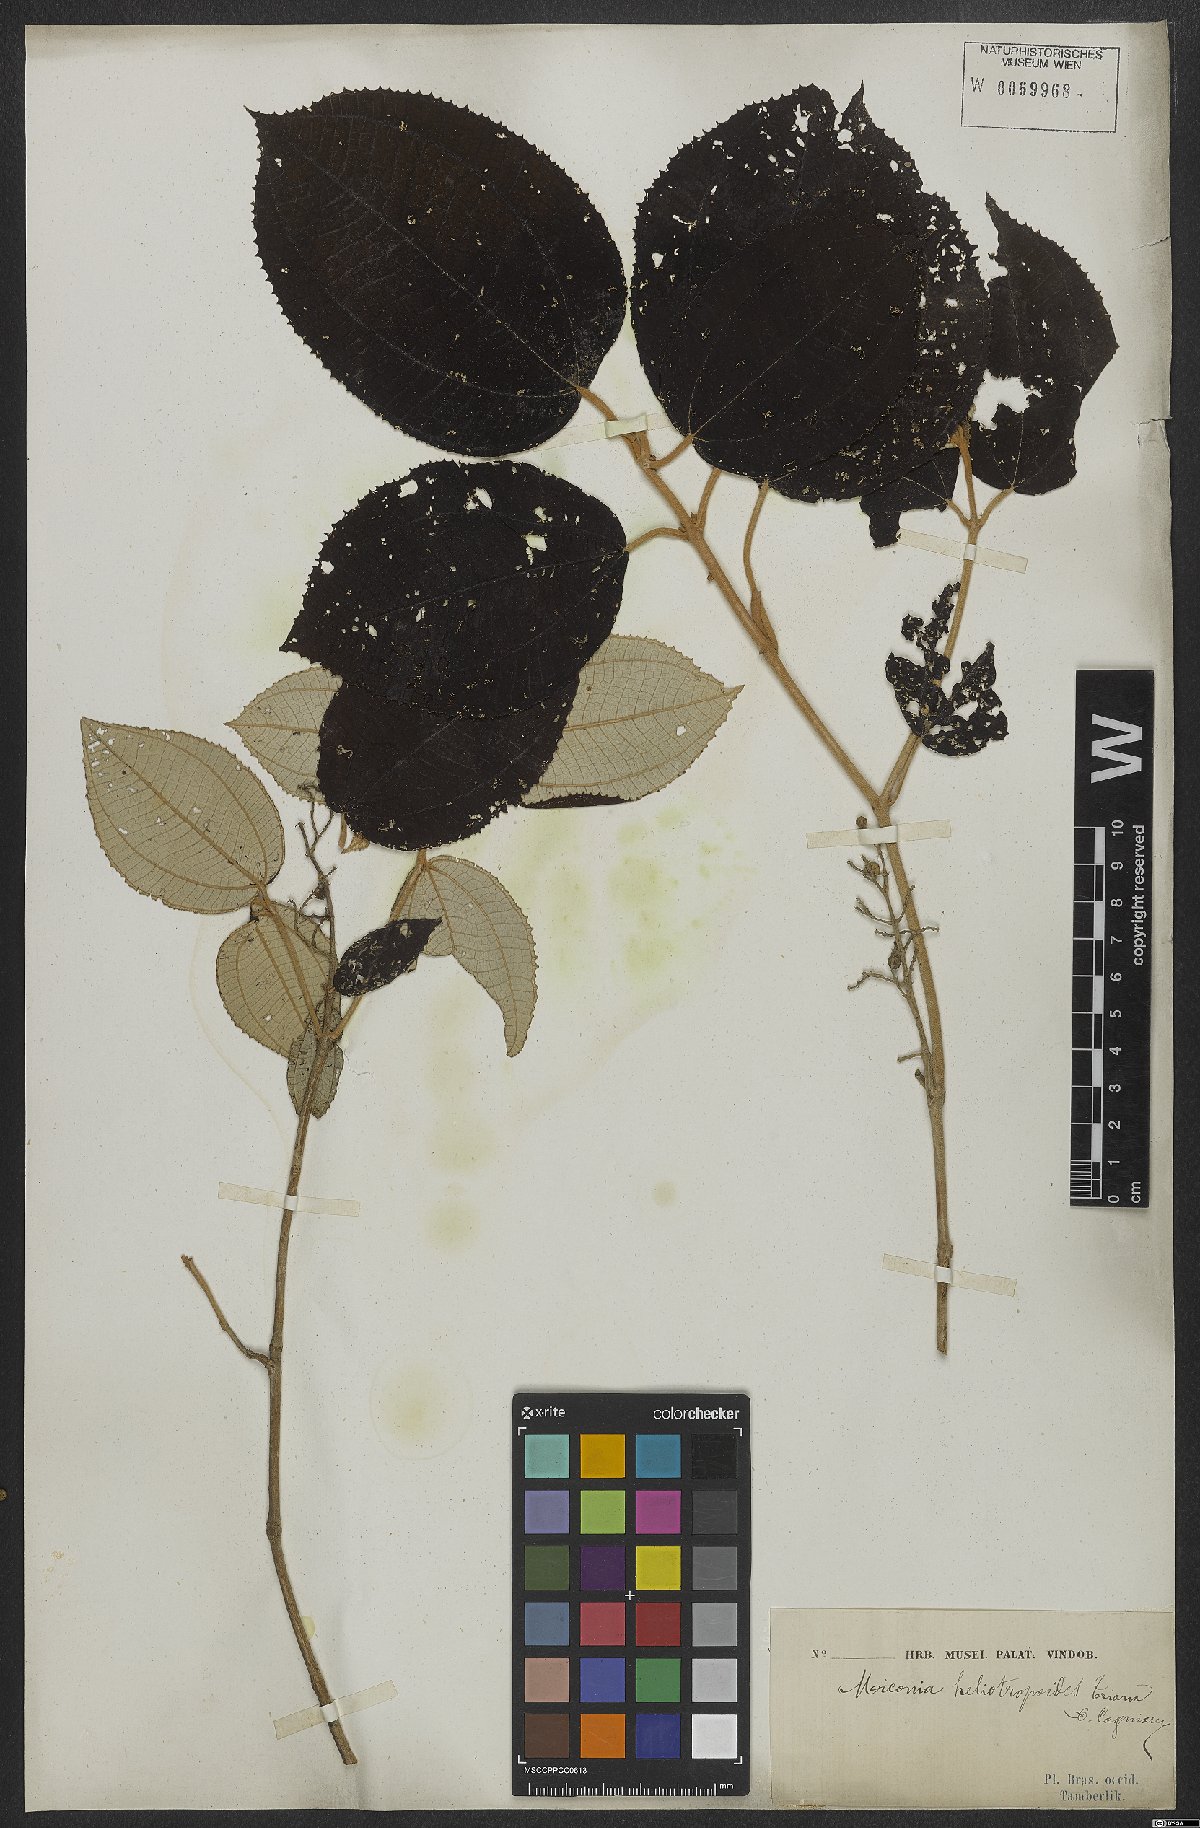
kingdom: Plantae
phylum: Tracheophyta
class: Magnoliopsida
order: Myrtales
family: Melastomataceae
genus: Miconia
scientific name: Miconia heliotropoides
